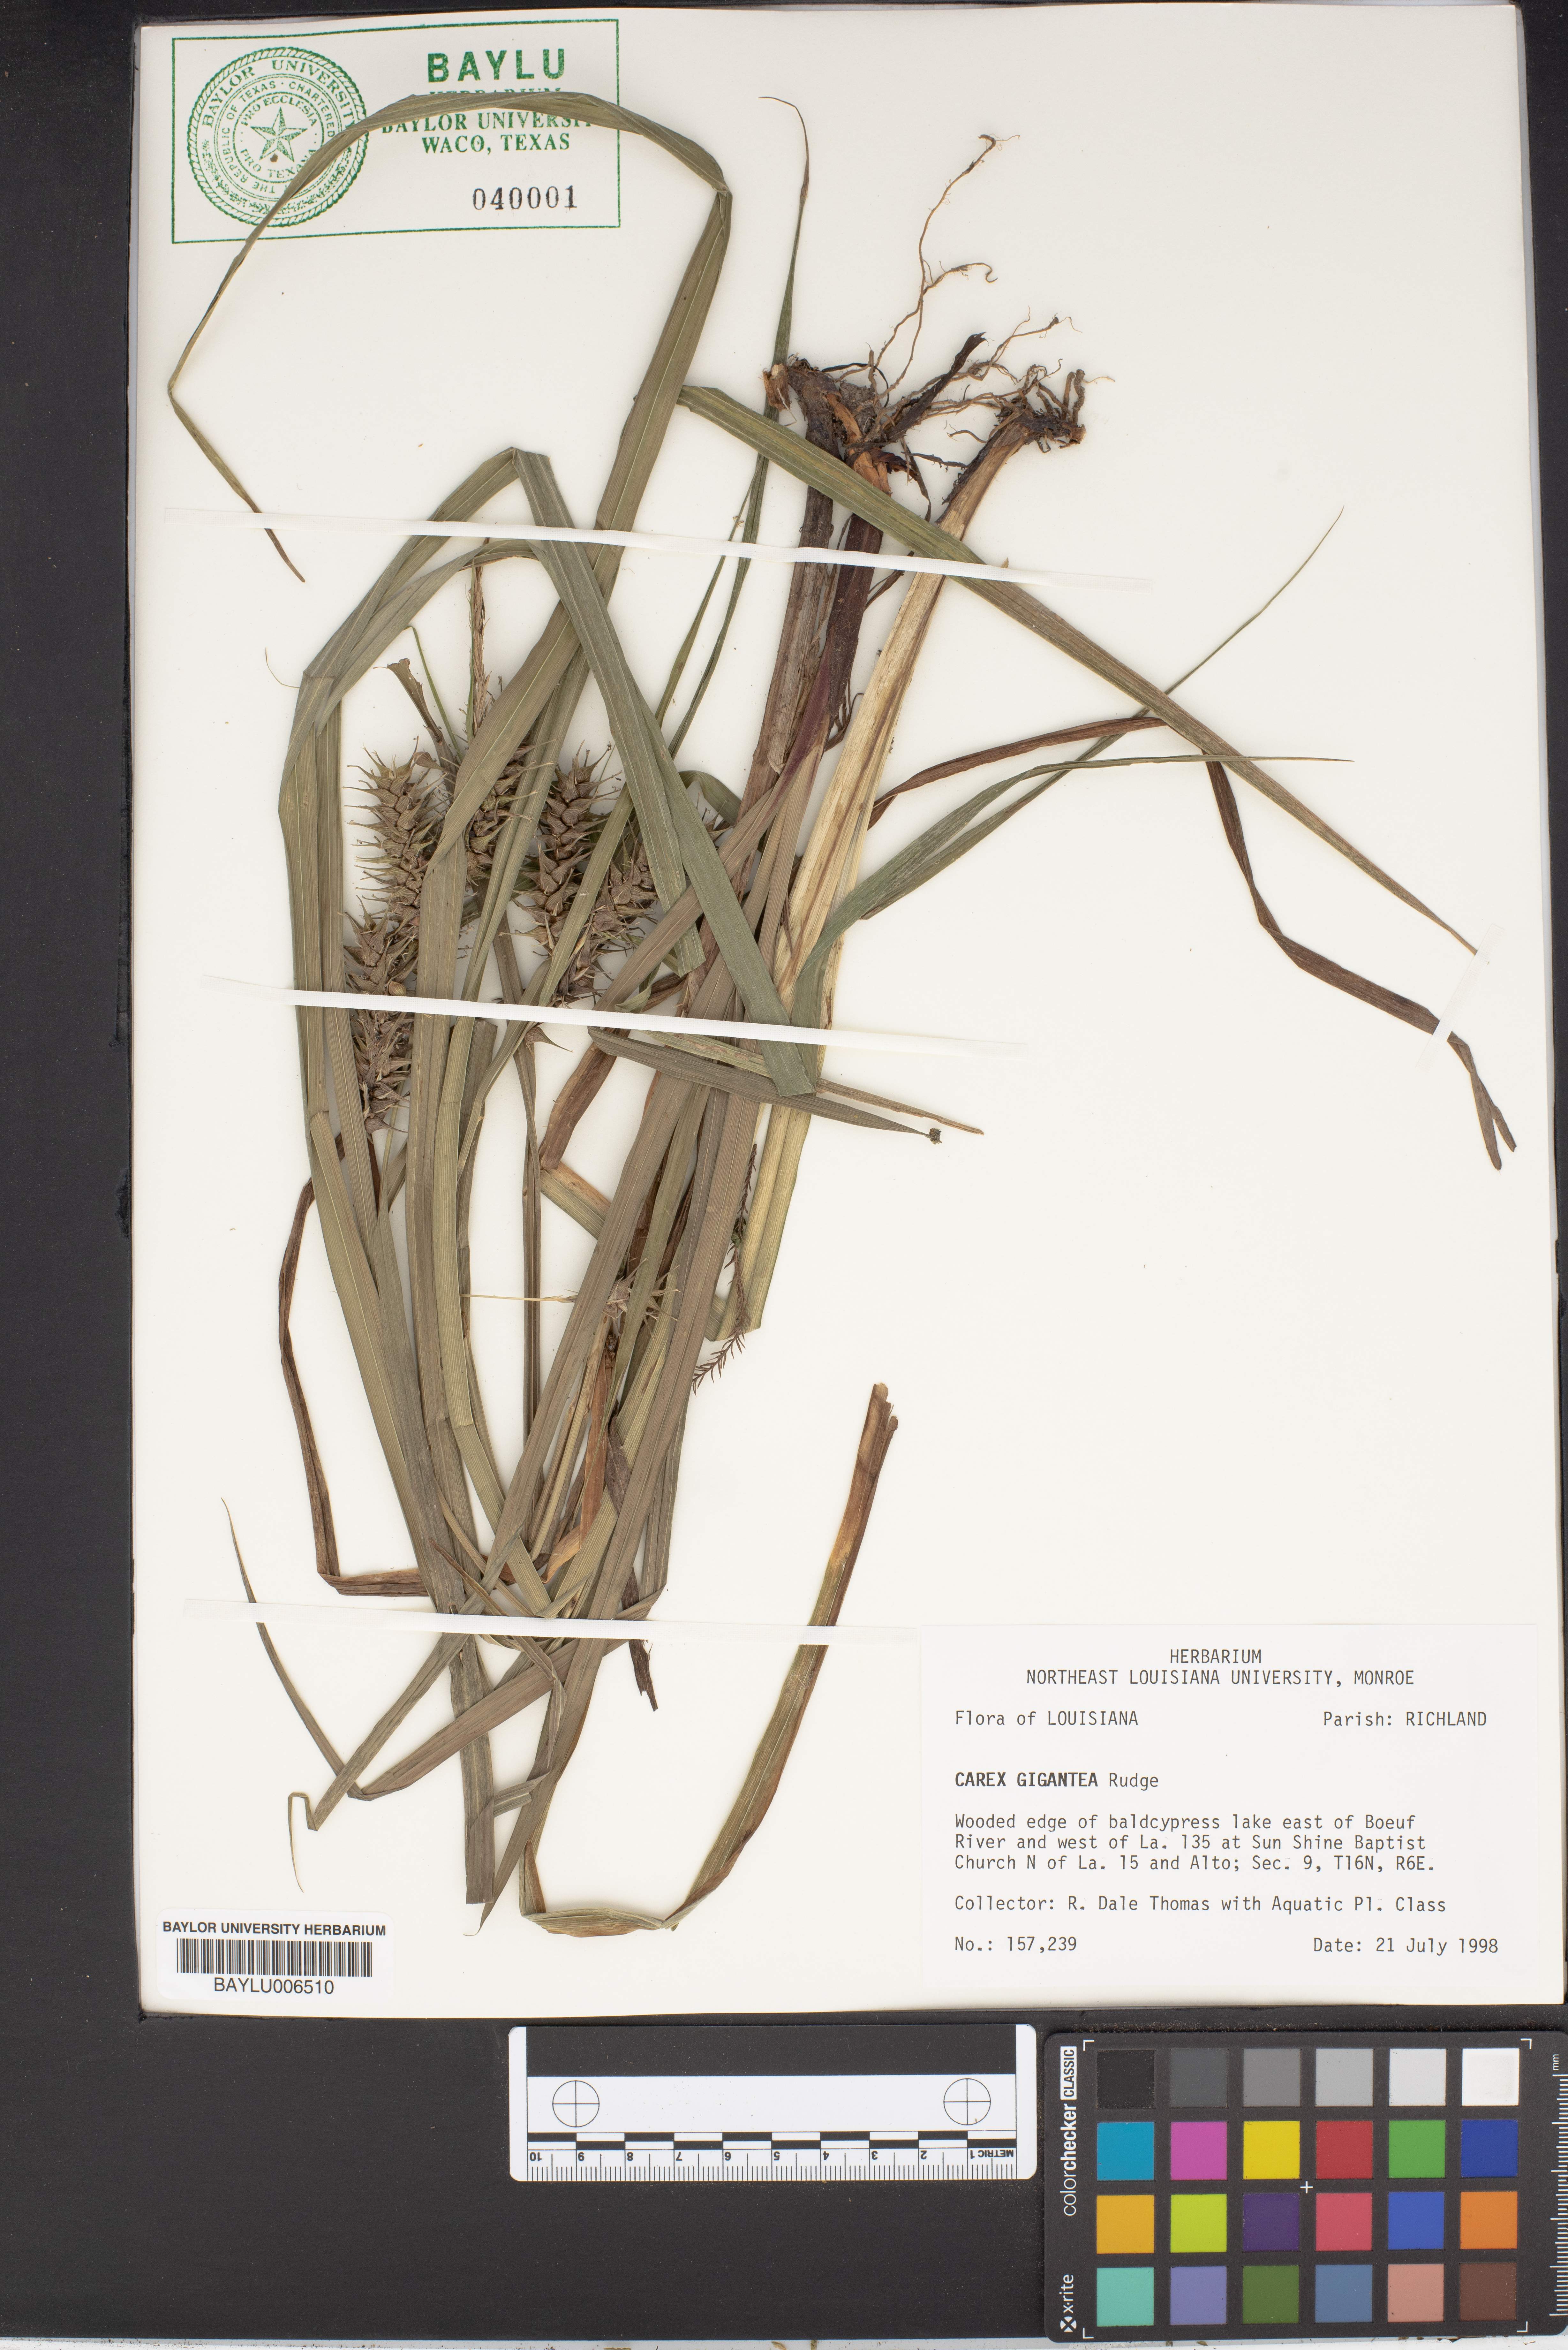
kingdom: Plantae
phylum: Tracheophyta
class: Liliopsida
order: Poales
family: Cyperaceae
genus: Carex
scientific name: Carex gigantea
